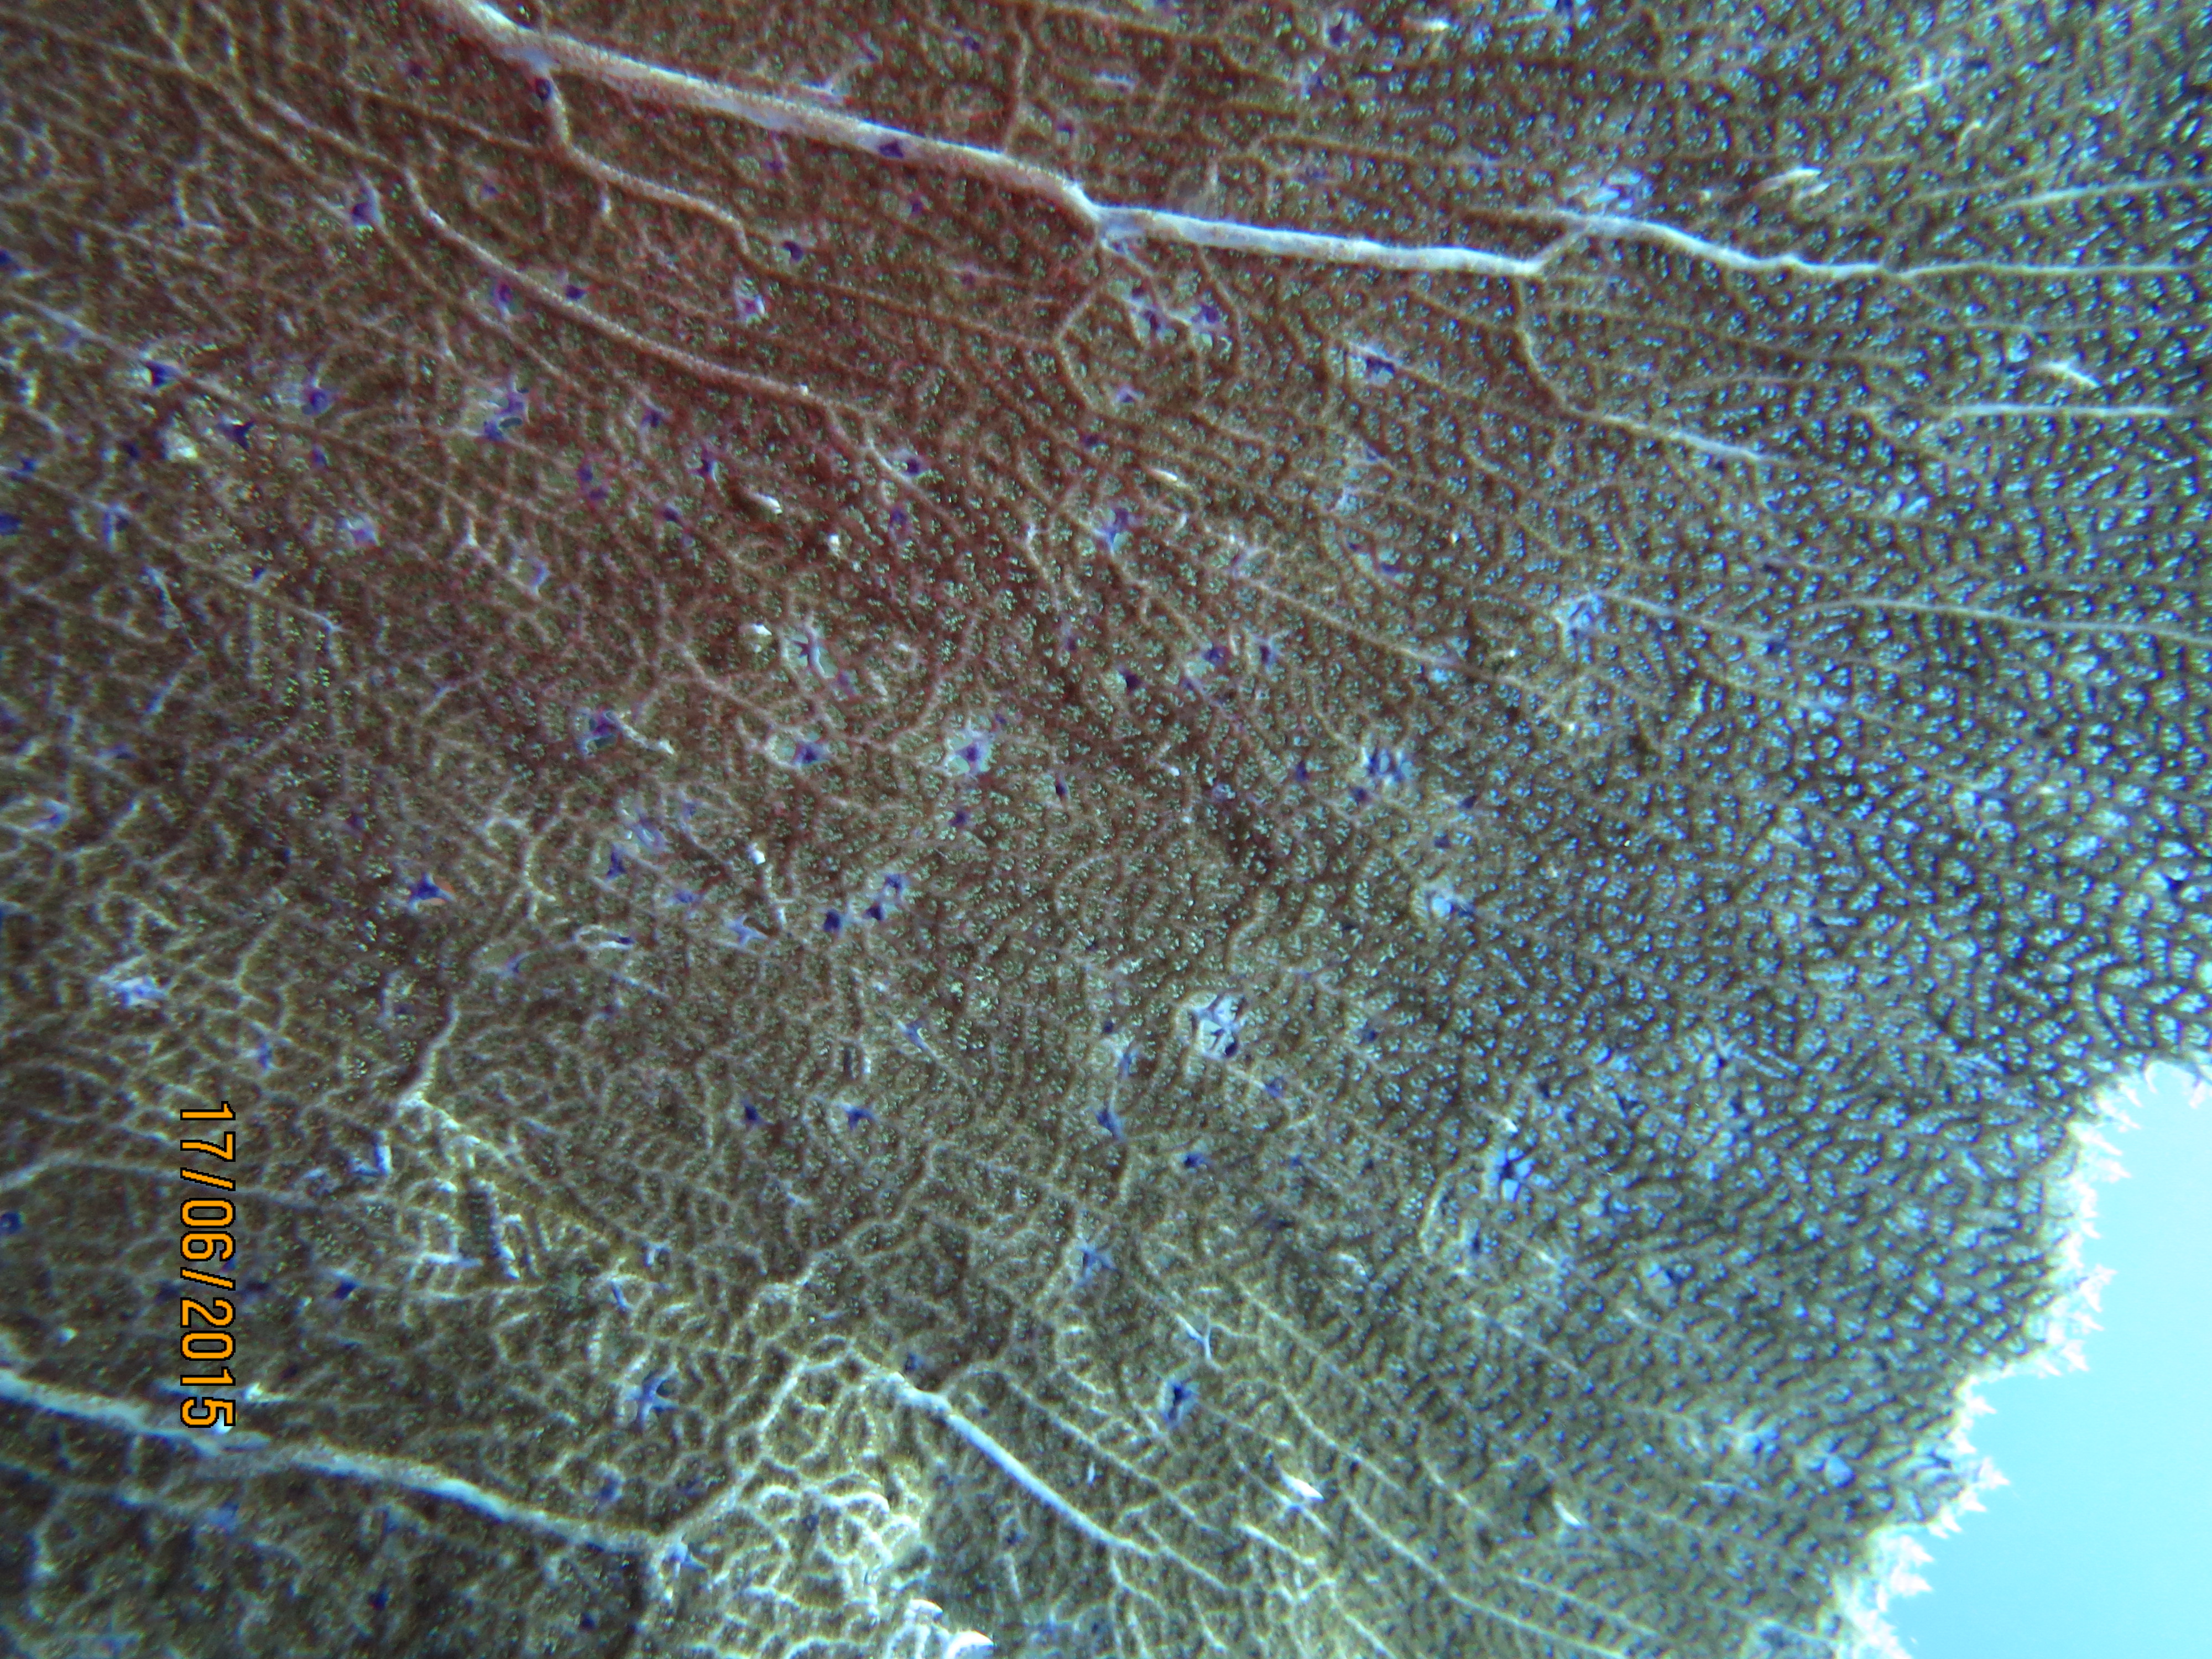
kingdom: Animalia
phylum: Cnidaria
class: Anthozoa
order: Malacalcyonacea
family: Gorgoniidae
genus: Gorgonia
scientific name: Gorgonia ventalina
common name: Common sea fan
